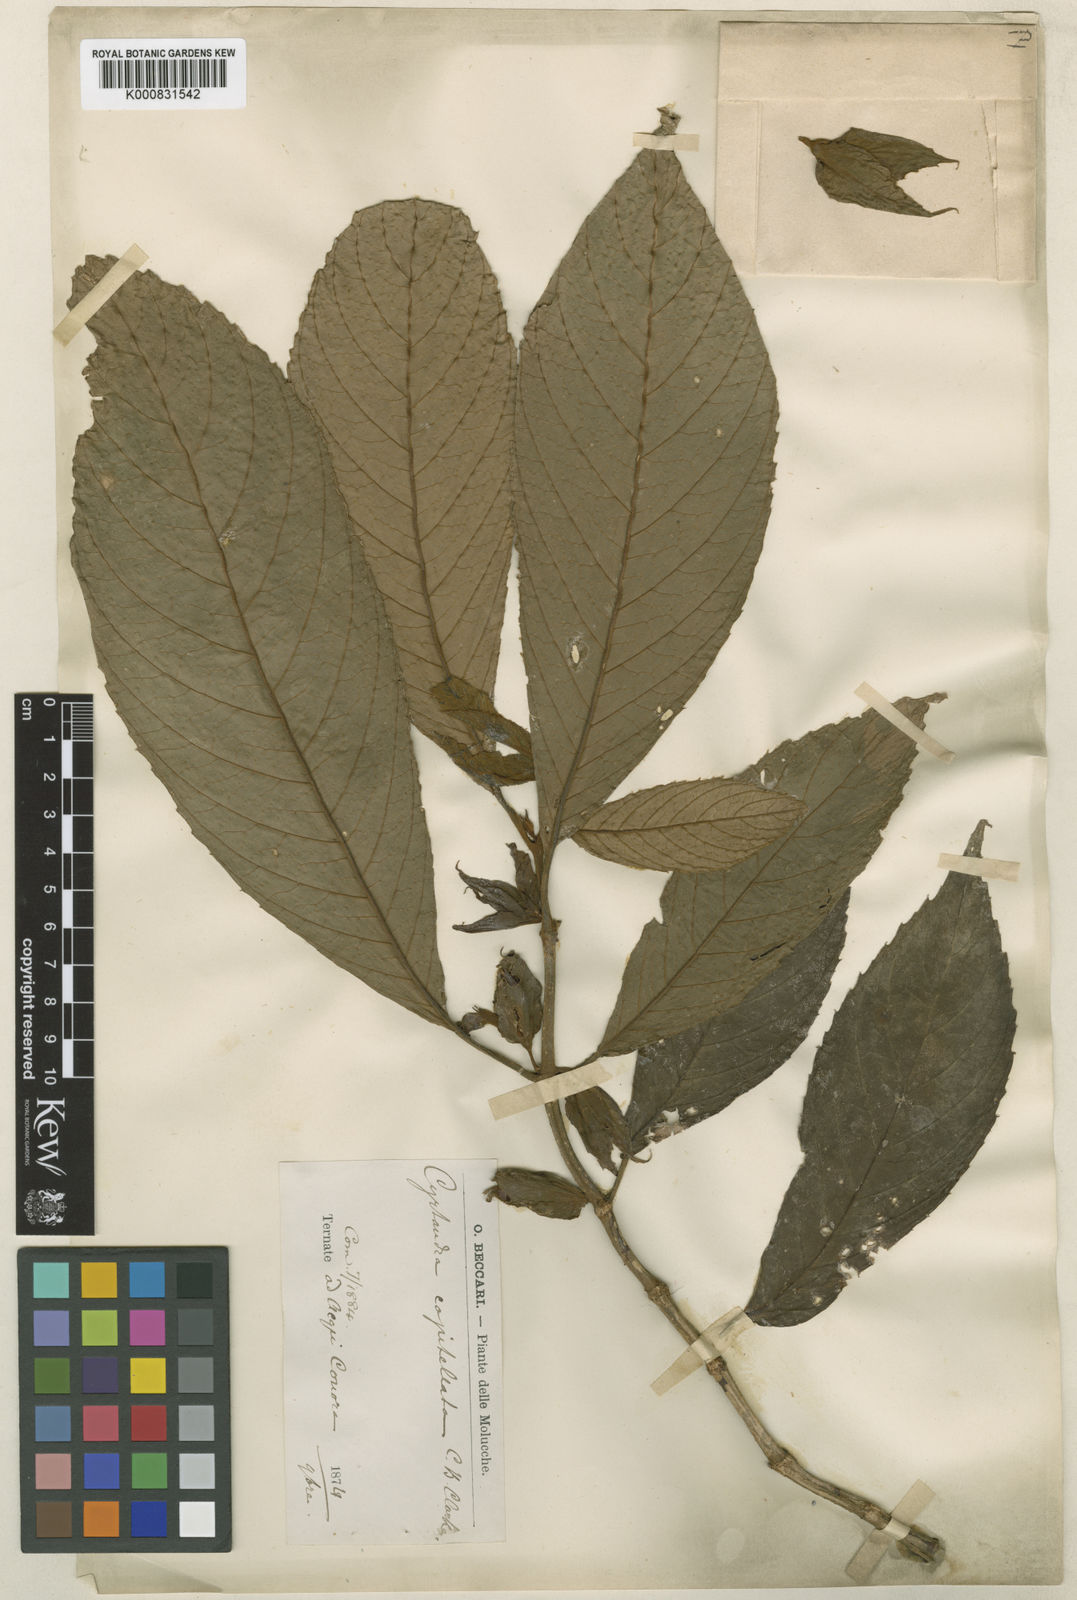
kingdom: Plantae
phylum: Tracheophyta
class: Magnoliopsida
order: Lamiales
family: Gesneriaceae
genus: Cyrtandra
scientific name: Cyrtandra capitellata
